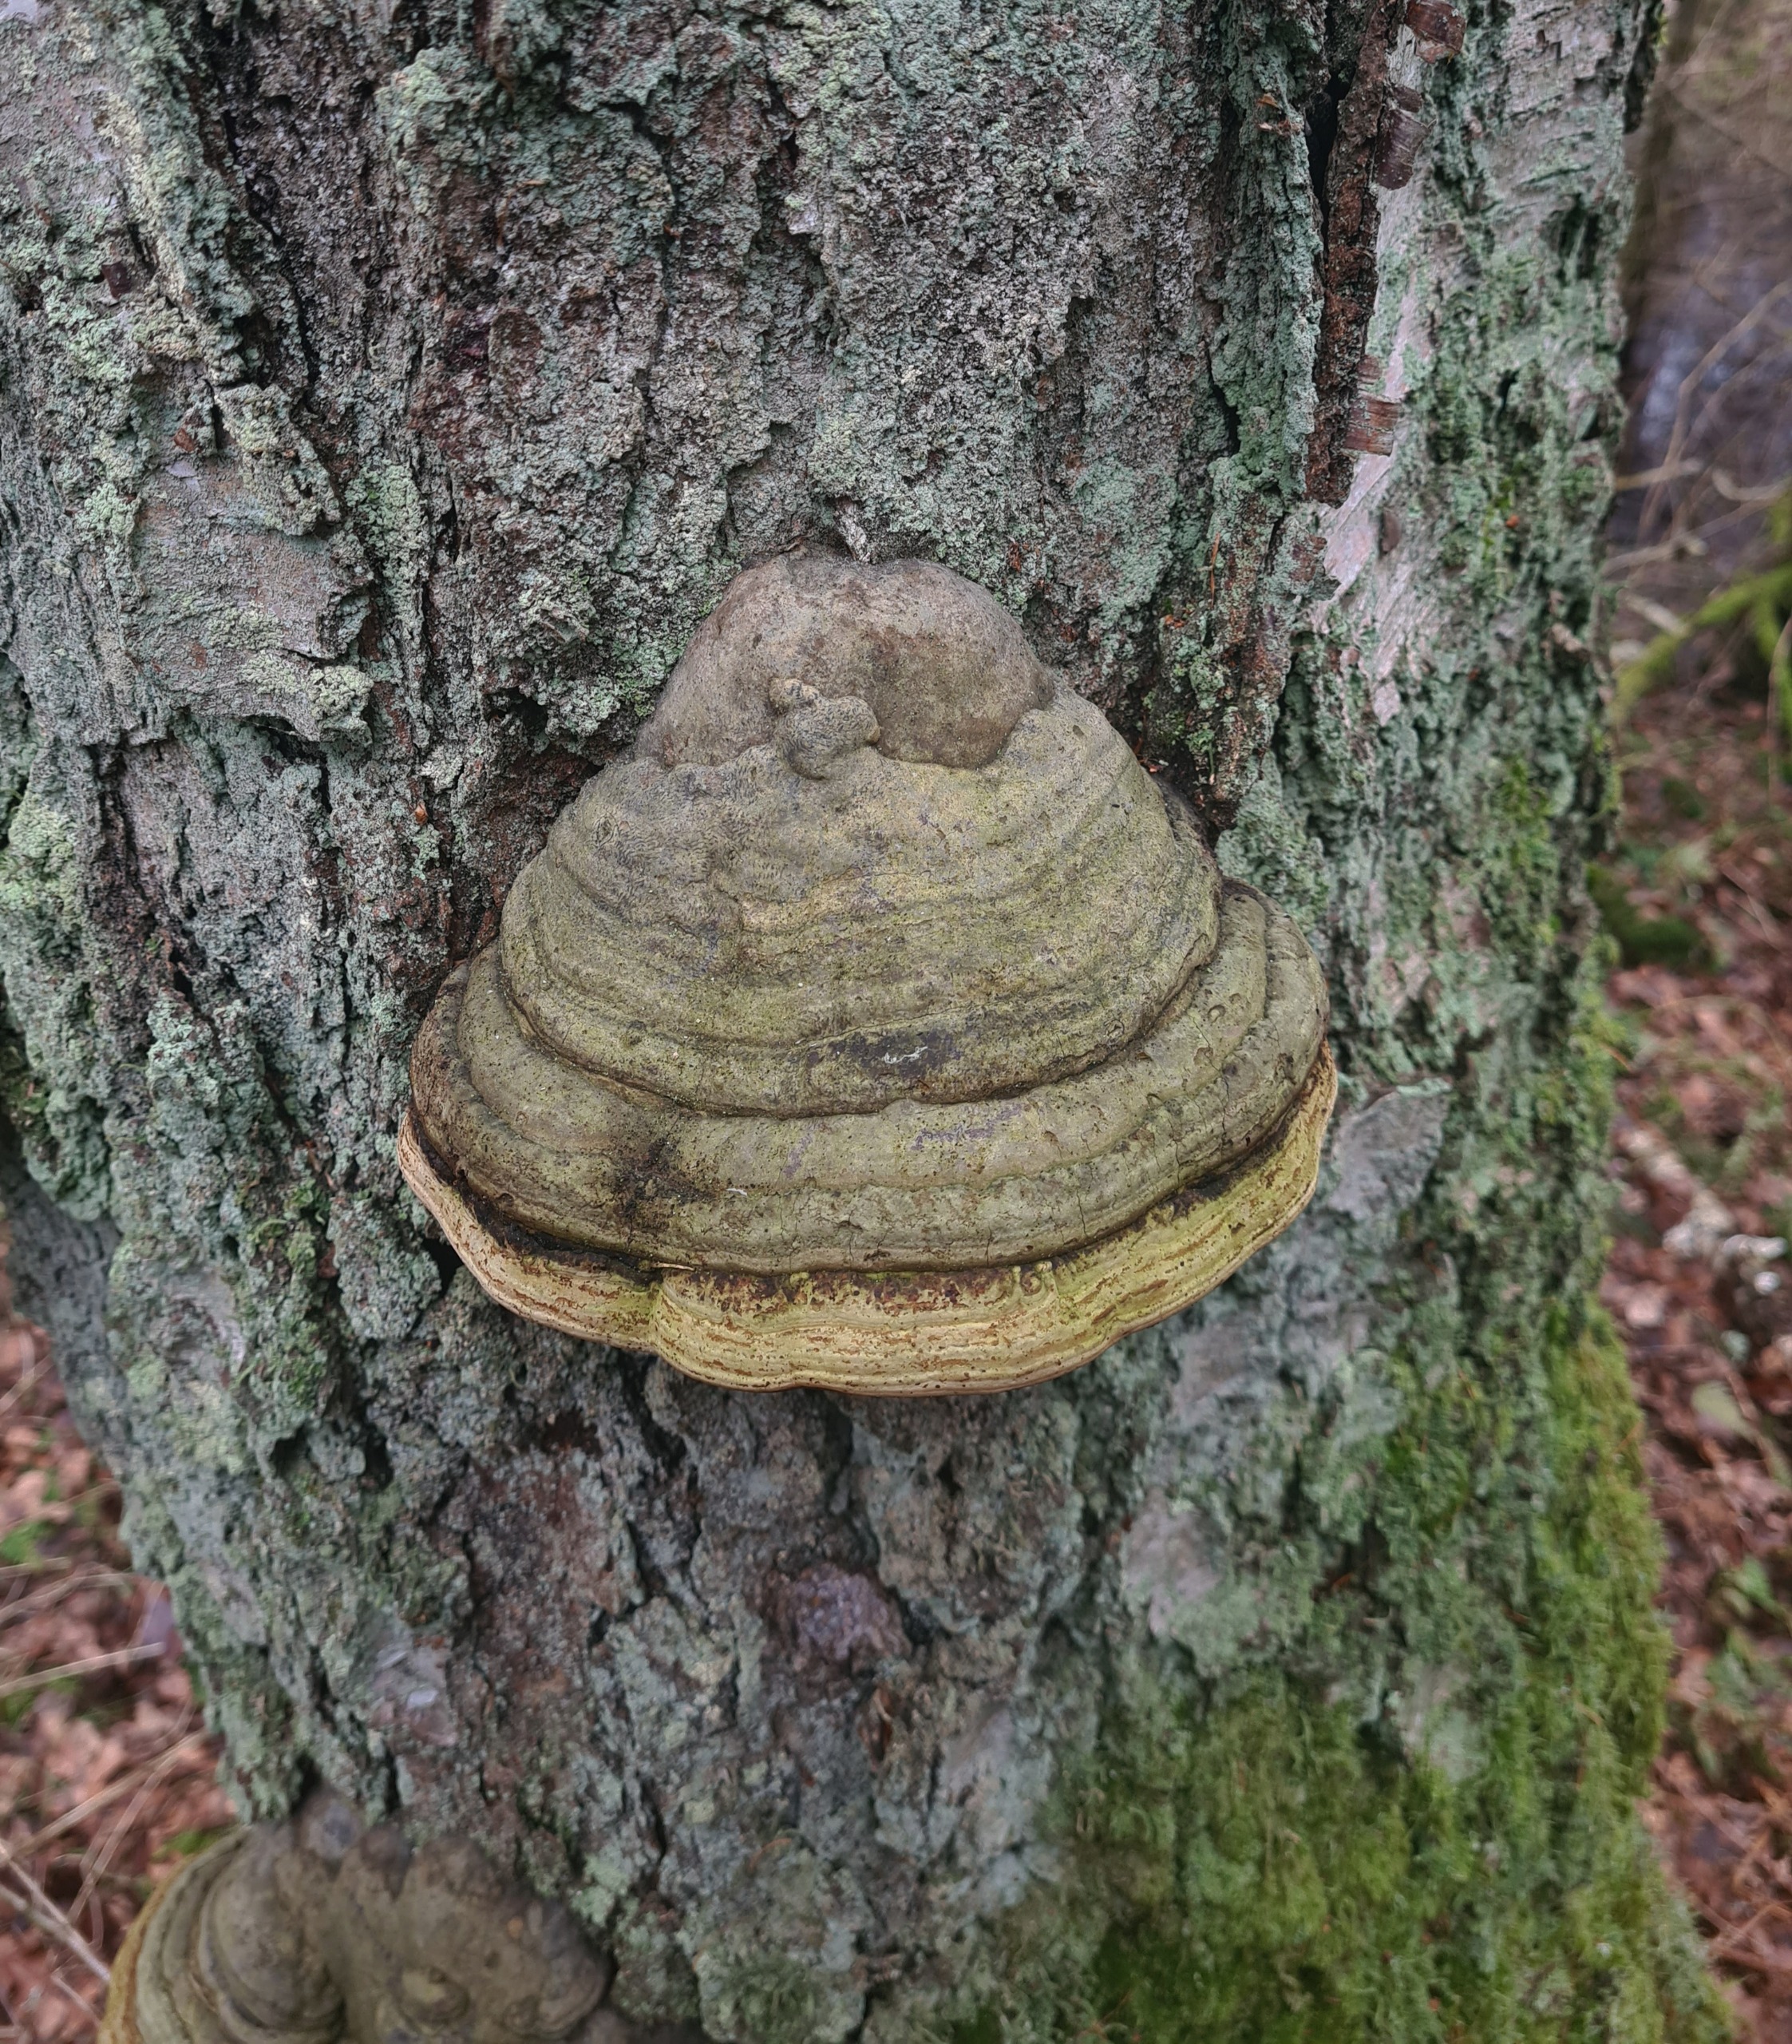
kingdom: Fungi
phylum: Basidiomycota
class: Agaricomycetes
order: Polyporales
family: Polyporaceae
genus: Fomes
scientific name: Fomes fomentarius
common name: Tøndersvamp
